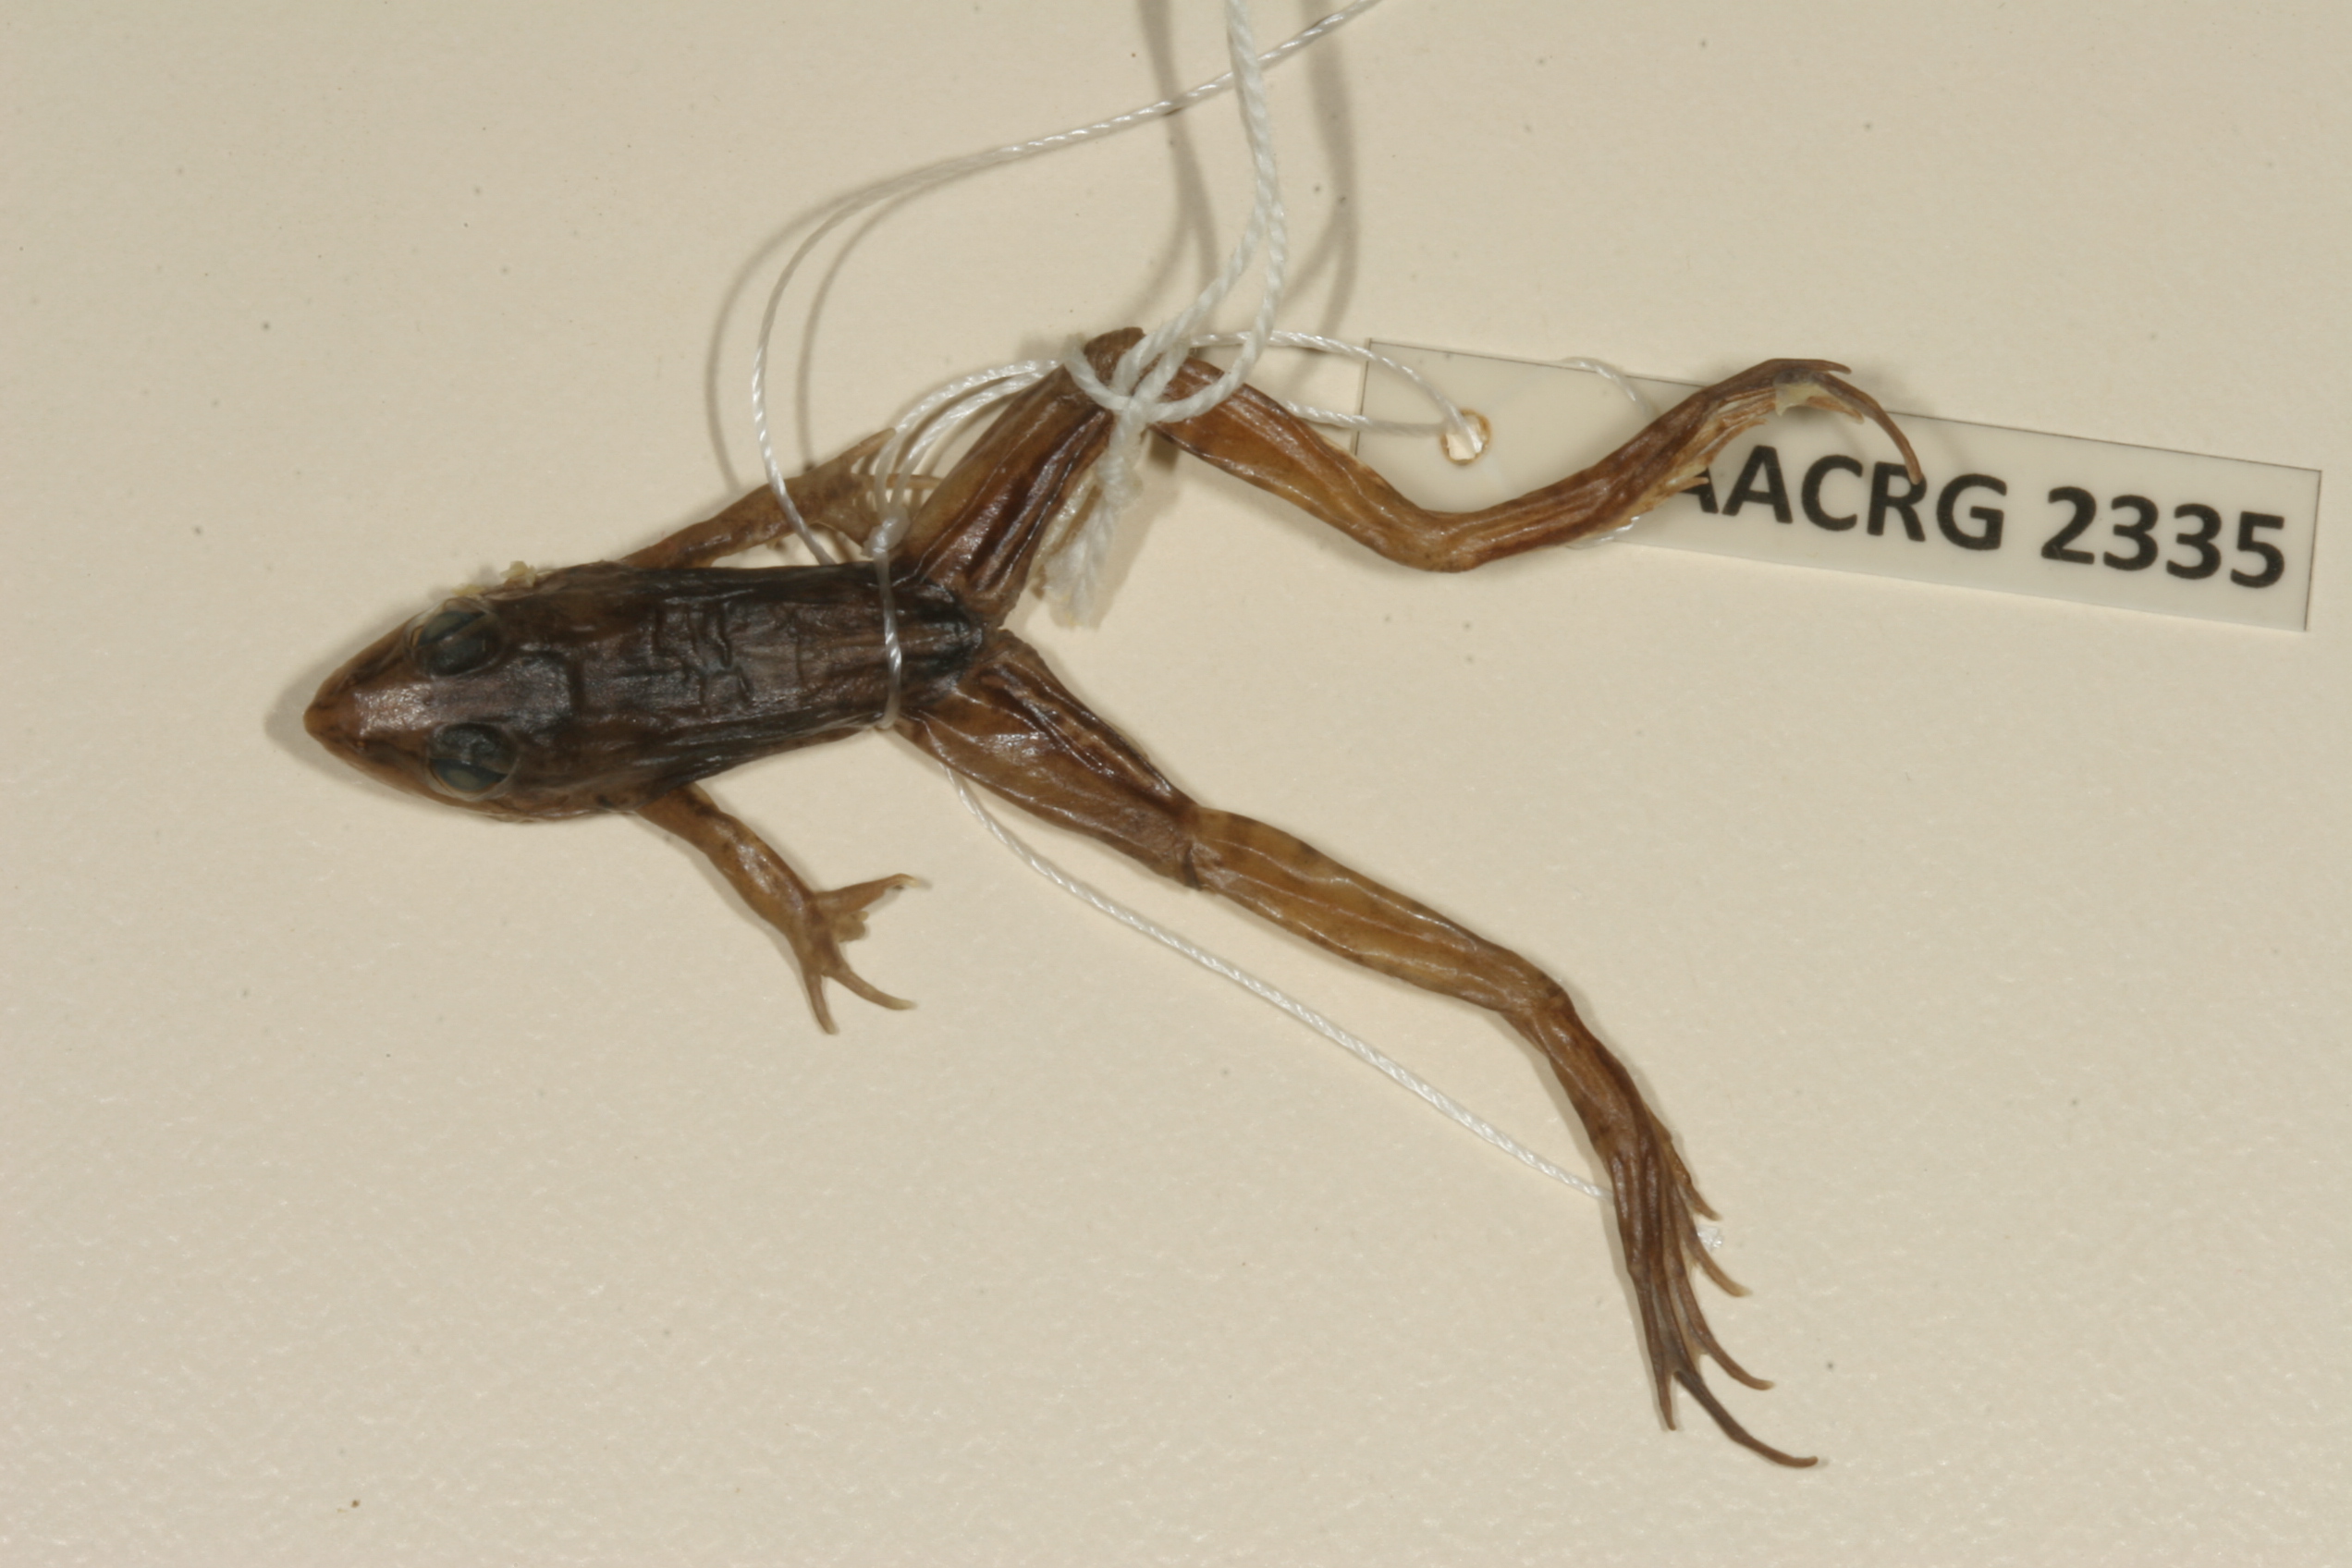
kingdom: Animalia
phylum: Chordata
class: Amphibia
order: Anura
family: Ptychadenidae
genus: Ptychadena
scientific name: Ptychadena mascareniensis
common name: Mascarene grass frog
